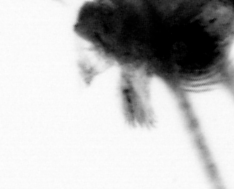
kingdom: Animalia
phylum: Arthropoda
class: Copepoda
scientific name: Copepoda
